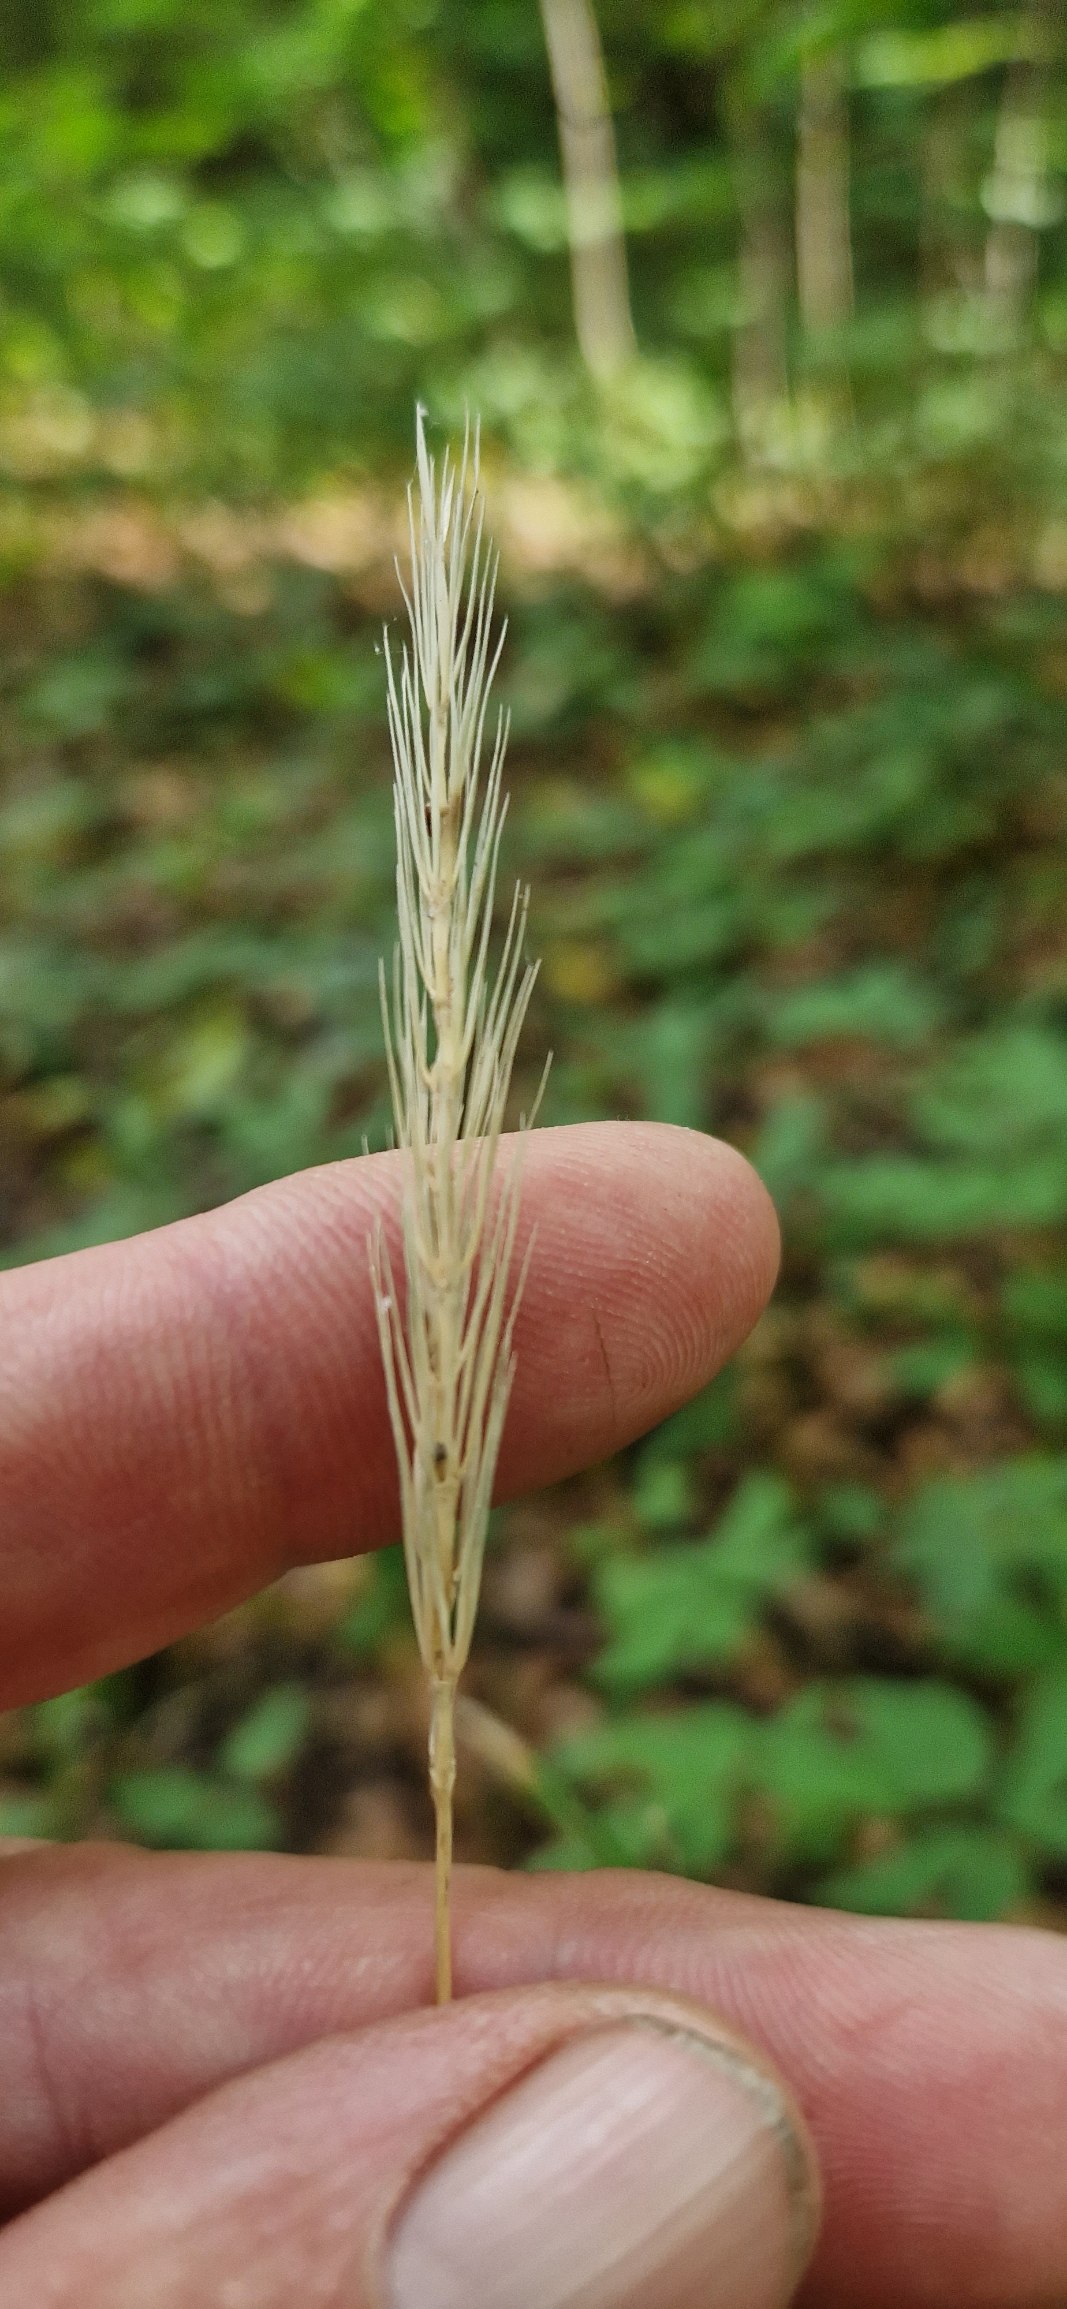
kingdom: Plantae
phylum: Tracheophyta
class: Liliopsida
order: Poales
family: Poaceae
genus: Hordelymus
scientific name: Hordelymus europaeus
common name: Skovbyg
